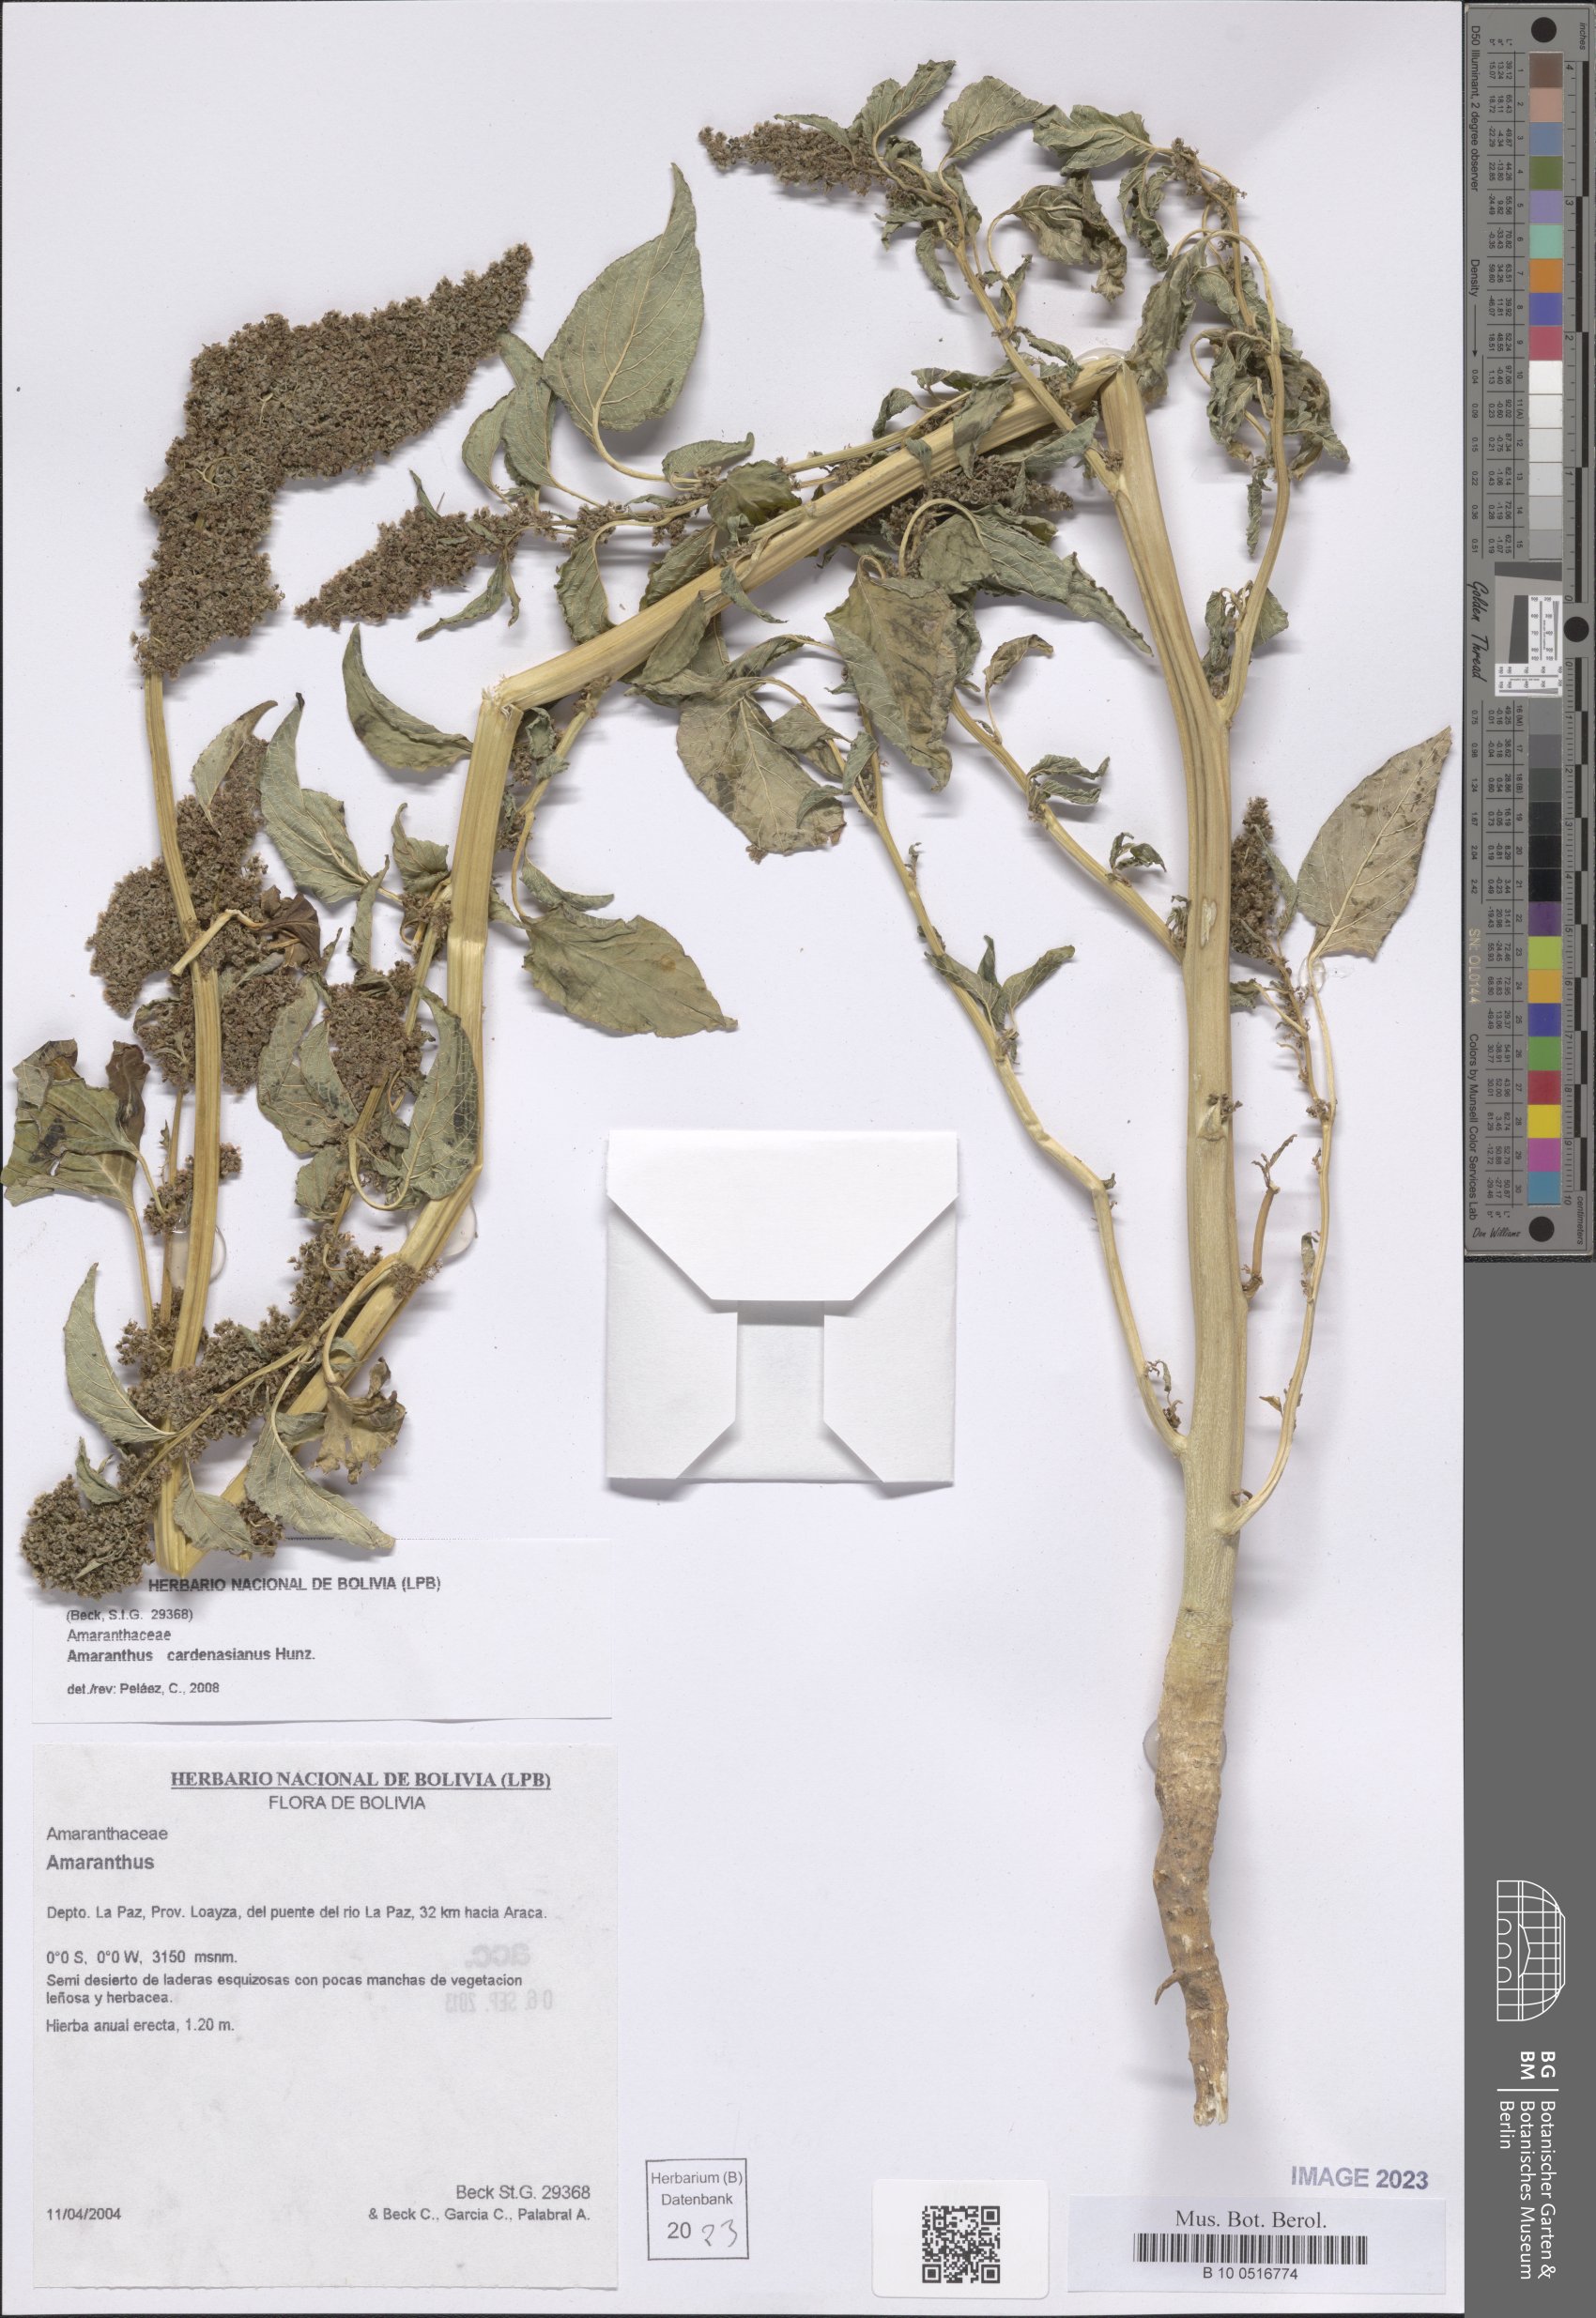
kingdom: Plantae
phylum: Tracheophyta
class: Magnoliopsida
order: Caryophyllales
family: Amaranthaceae
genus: Amaranthus
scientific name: Amaranthus cardenasianus
